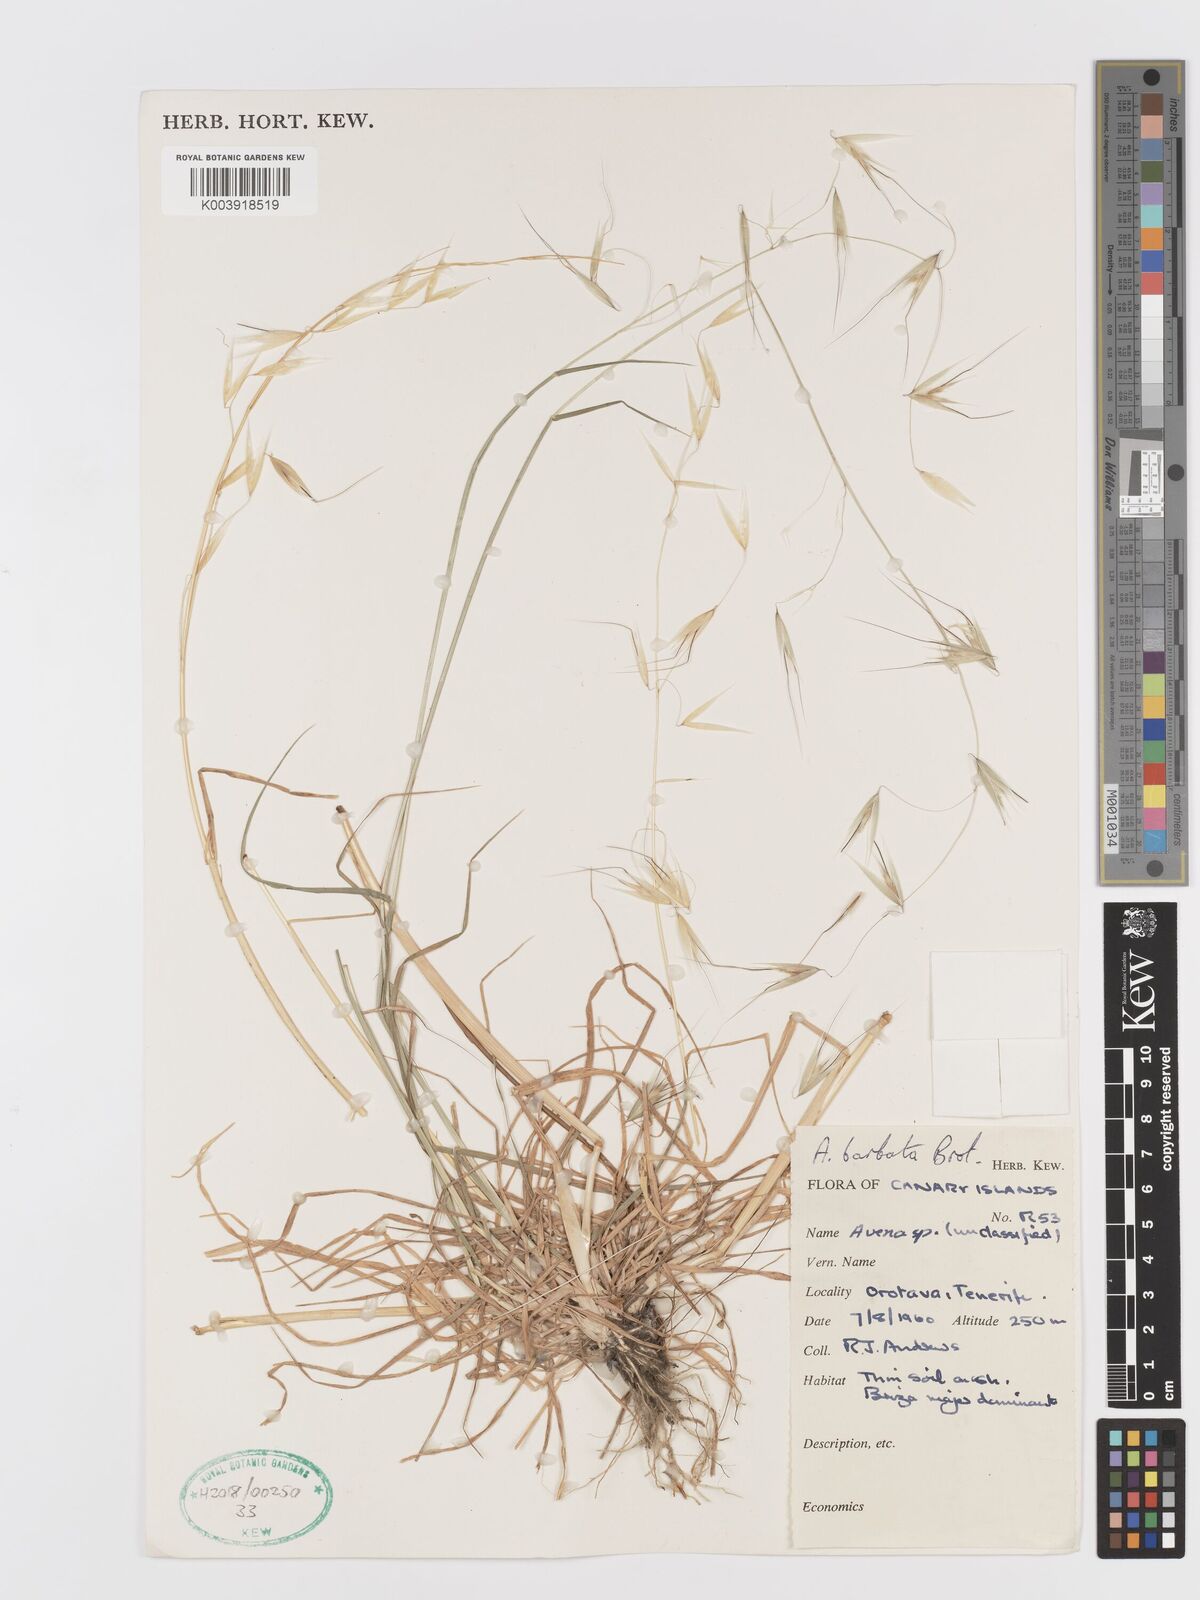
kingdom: Plantae
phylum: Tracheophyta
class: Liliopsida
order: Poales
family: Poaceae
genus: Avena
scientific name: Avena
